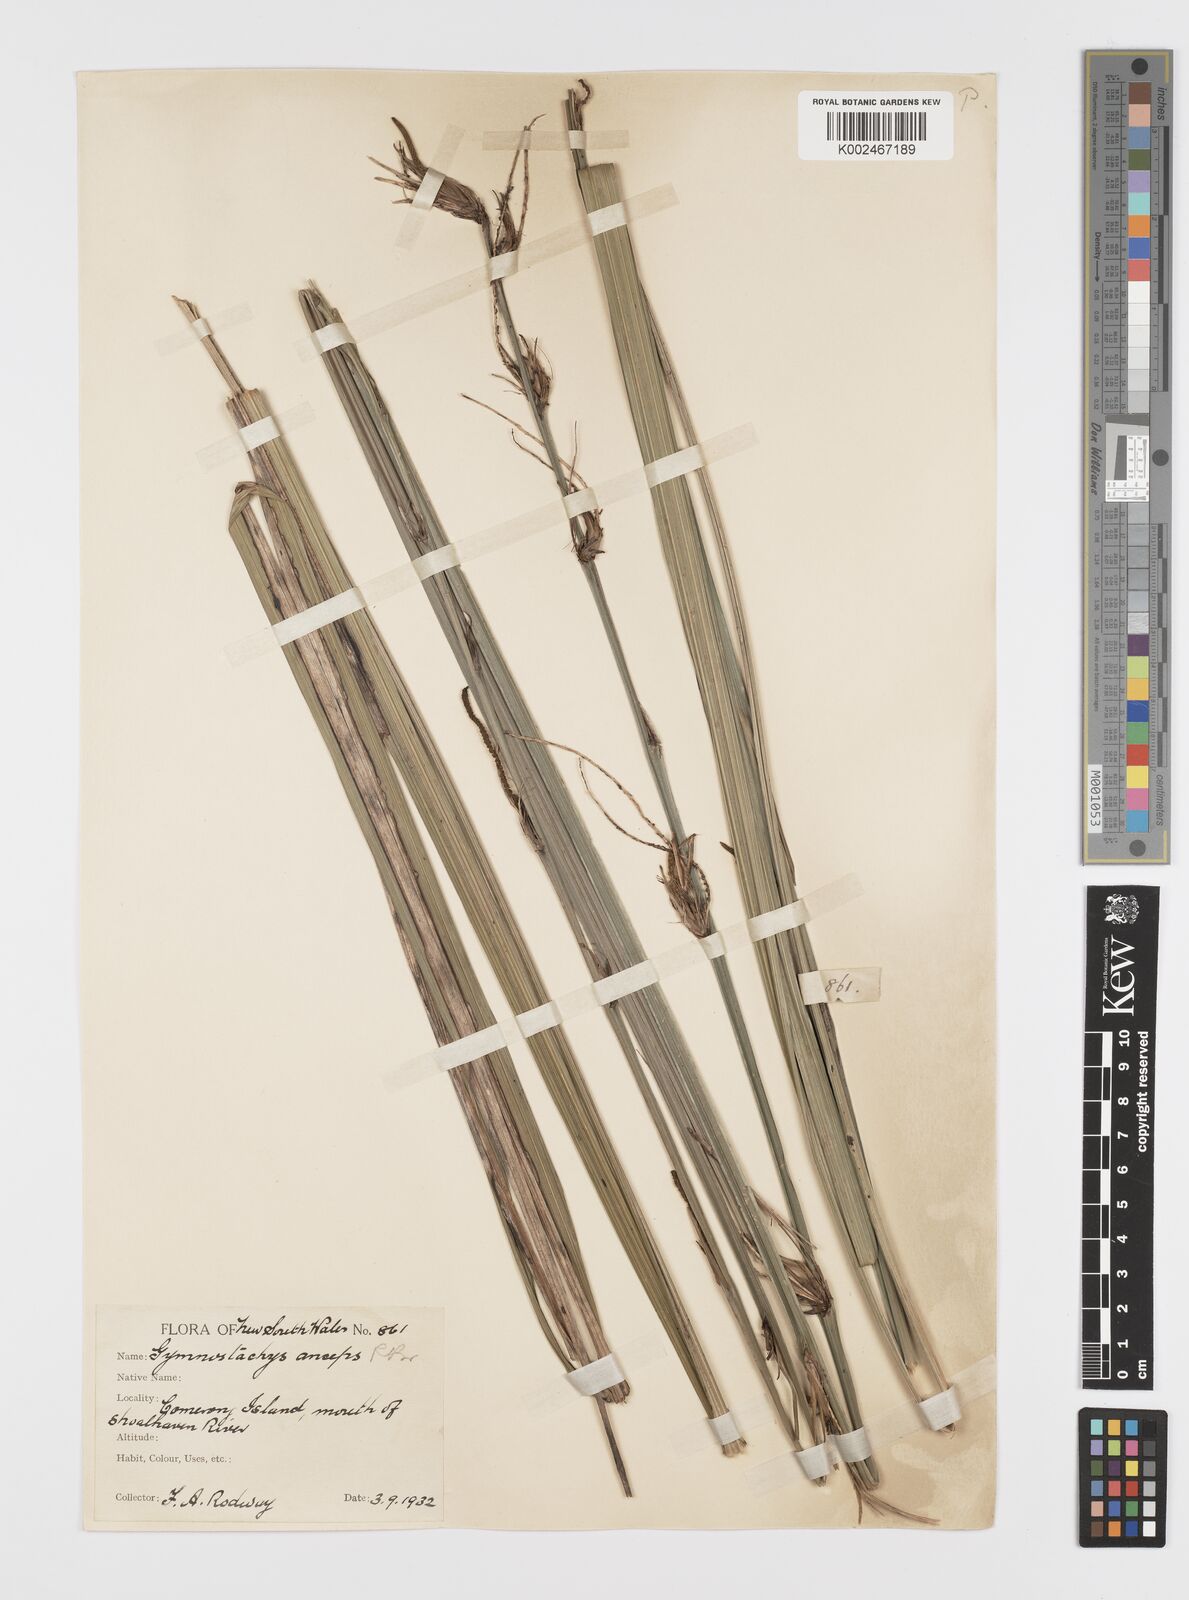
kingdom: Plantae
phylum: Tracheophyta
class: Liliopsida
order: Alismatales
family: Araceae
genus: Gymnostachys
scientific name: Gymnostachys anceps
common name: Settler's-flax
